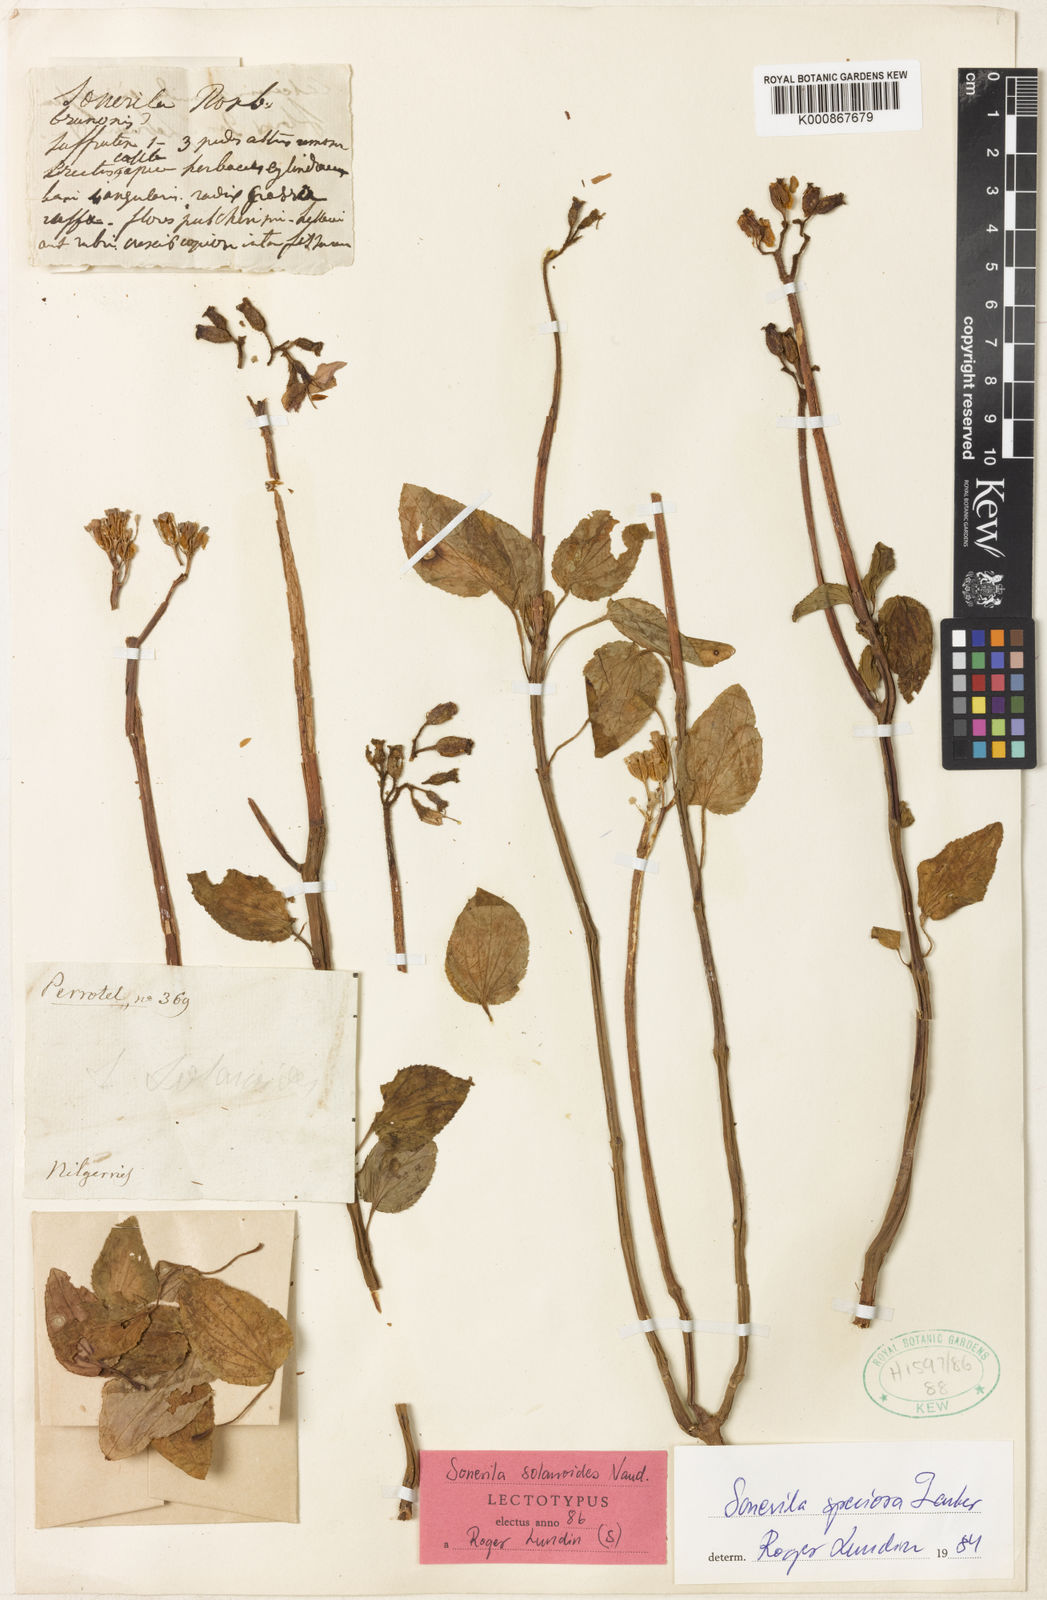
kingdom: Plantae
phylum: Tracheophyta
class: Magnoliopsida
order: Myrtales
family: Melastomataceae
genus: Sonerila
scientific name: Sonerila speciosa
